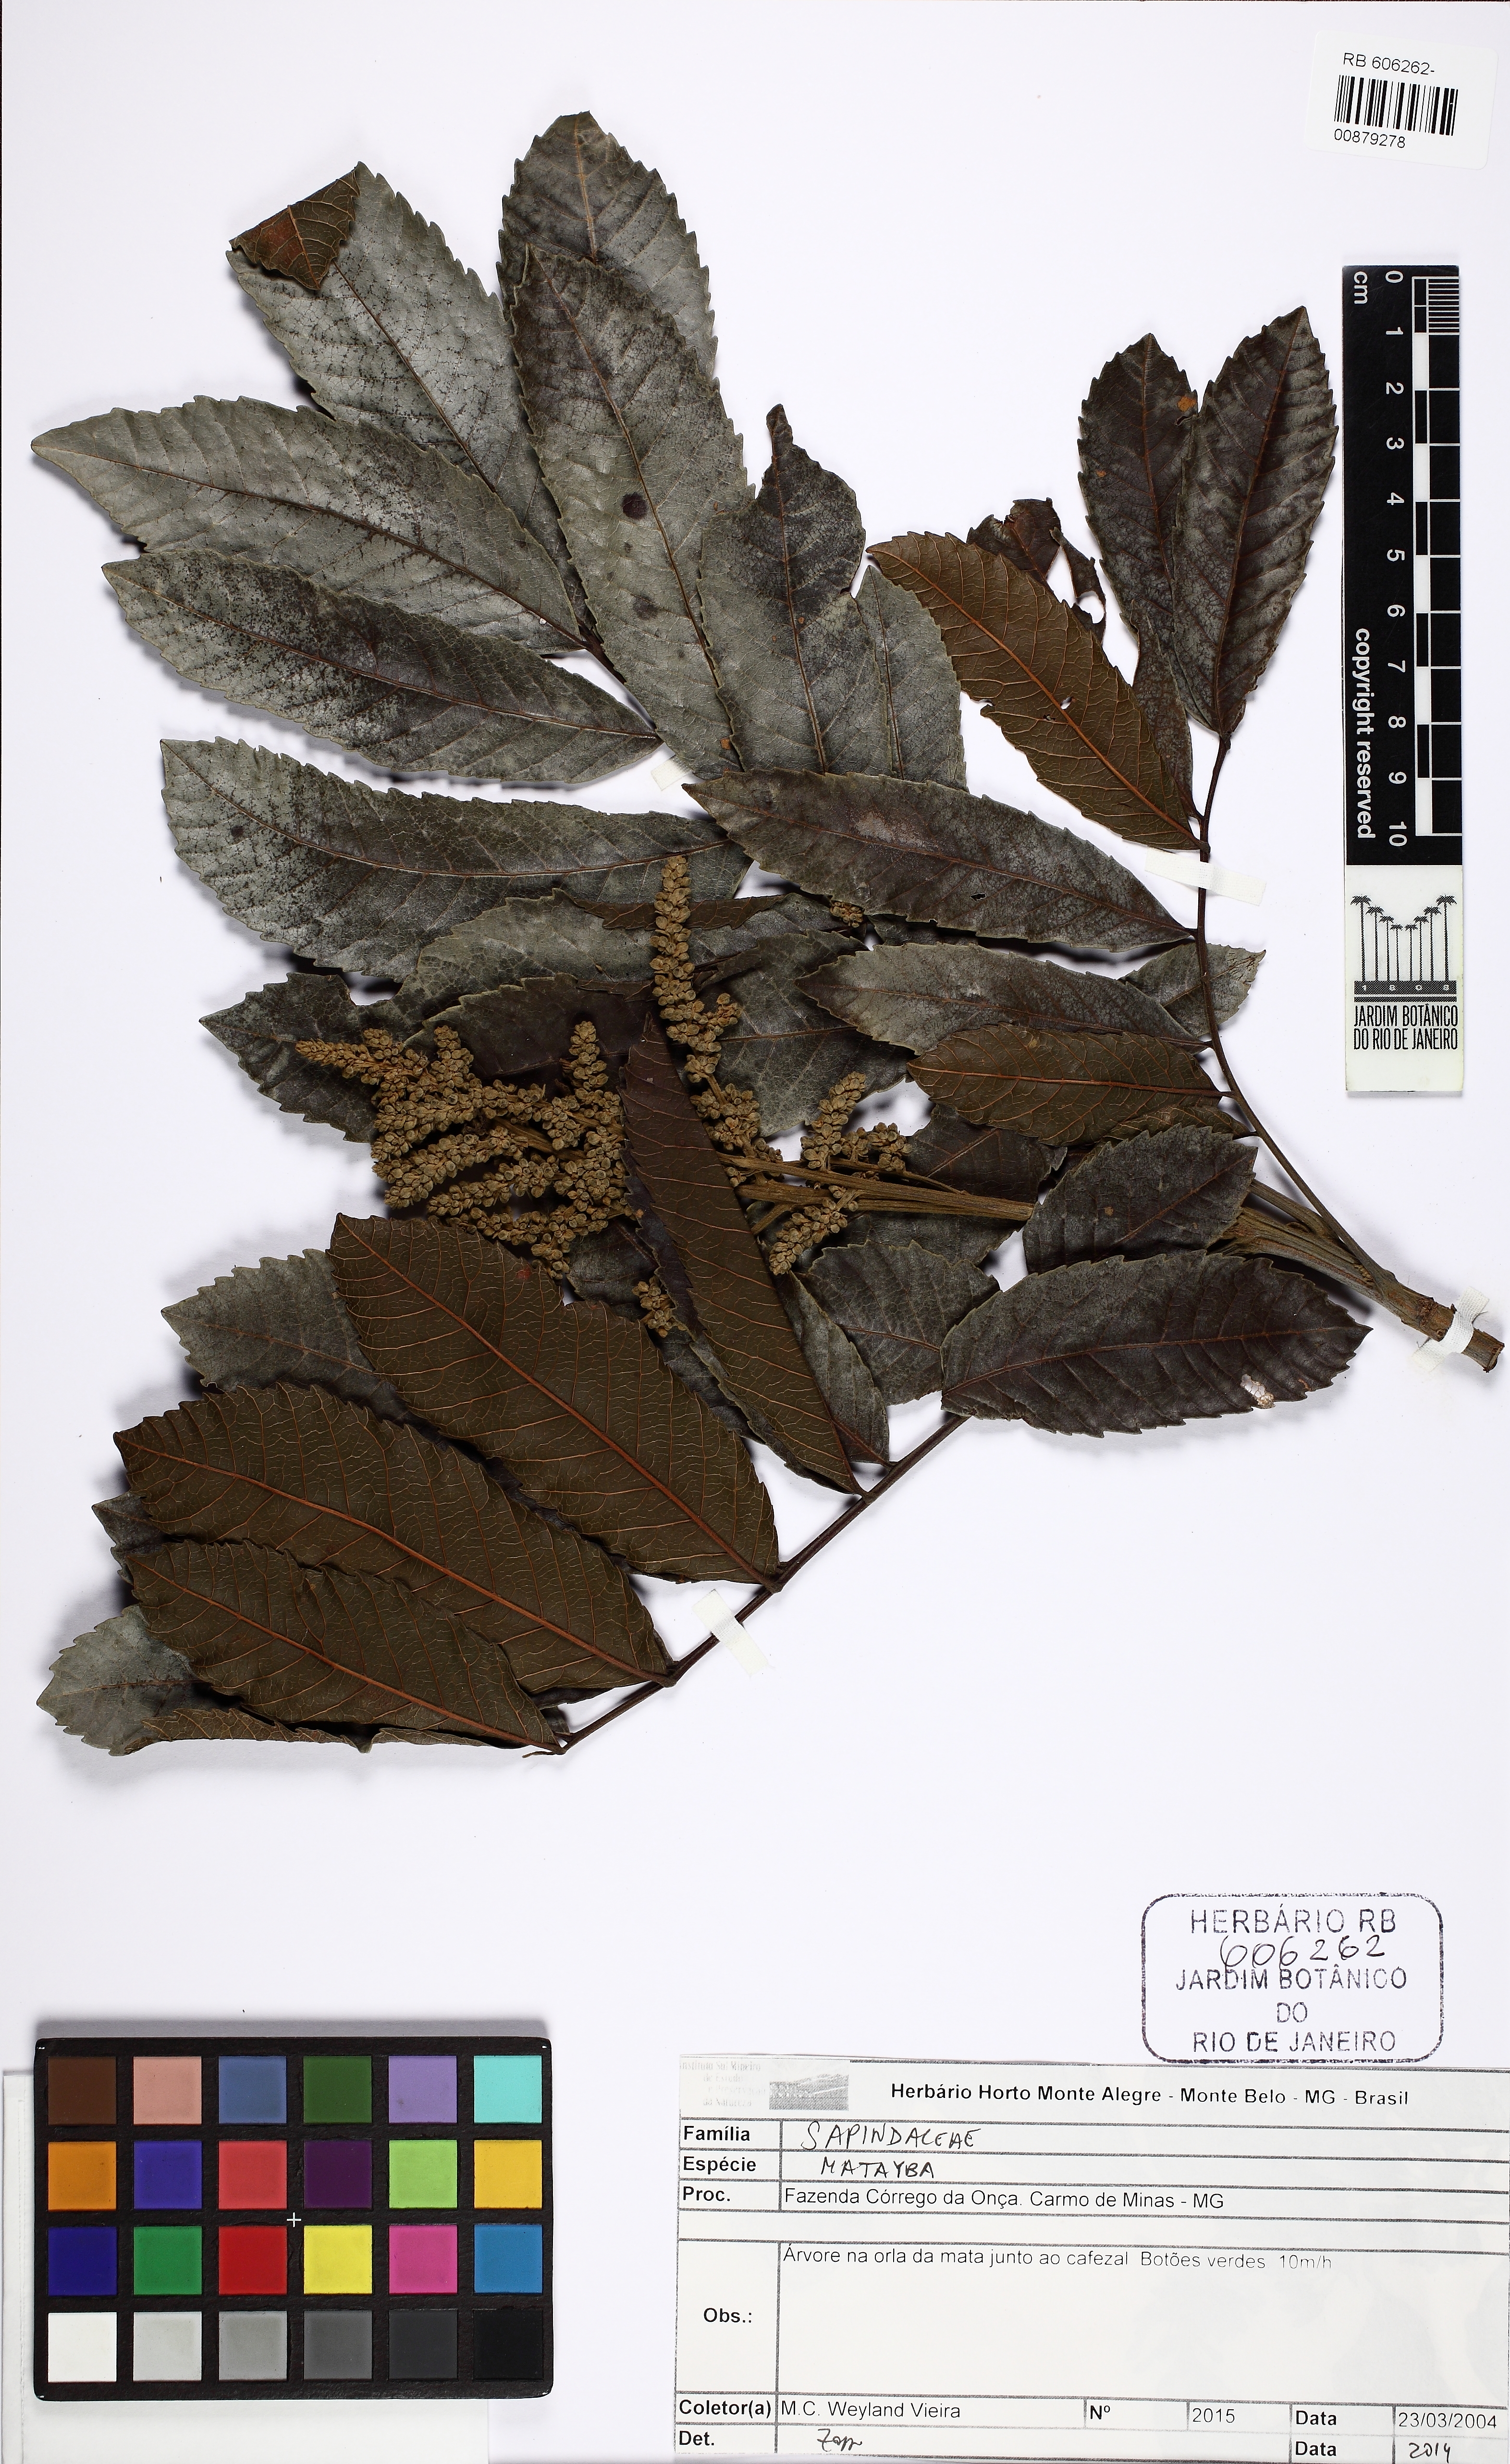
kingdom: Plantae
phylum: Tracheophyta
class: Magnoliopsida
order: Sapindales
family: Sapindaceae
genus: Cupania
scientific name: Cupania furfuracea
